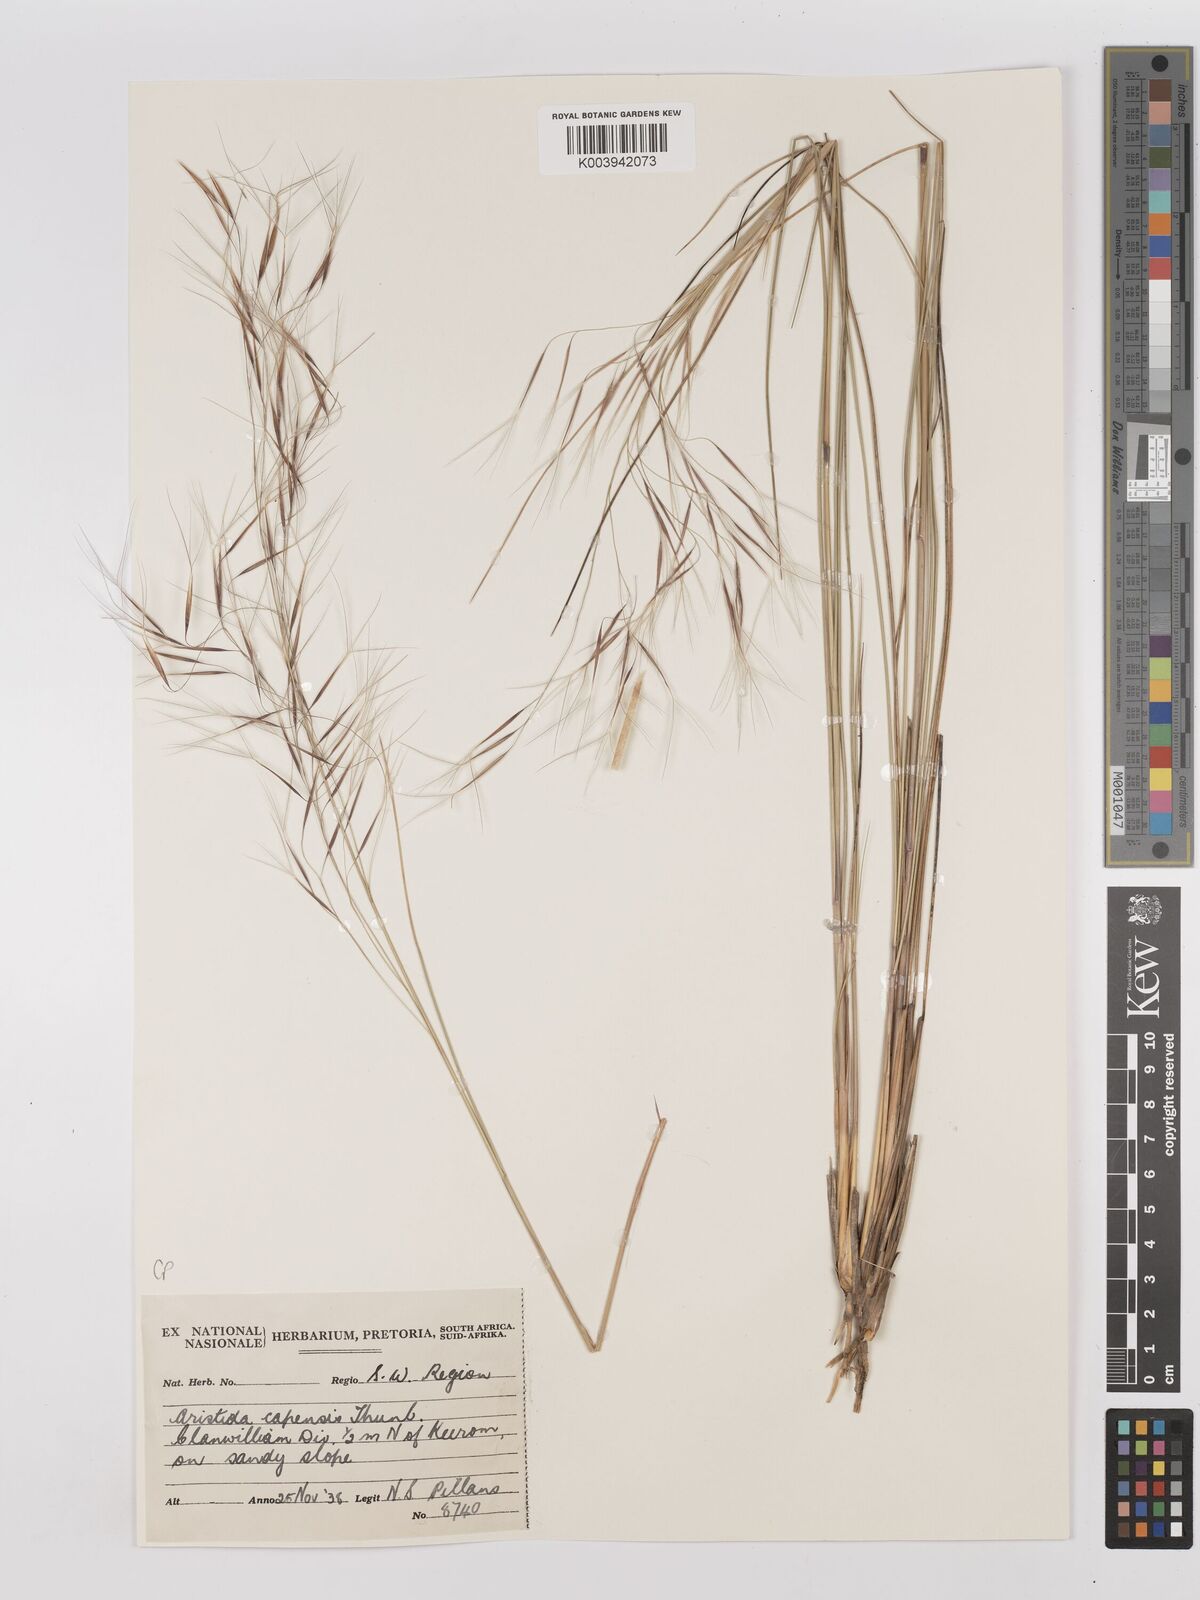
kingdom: Plantae
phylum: Tracheophyta
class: Liliopsida
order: Poales
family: Poaceae
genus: Stipagrostis
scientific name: Stipagrostis zeyheri
